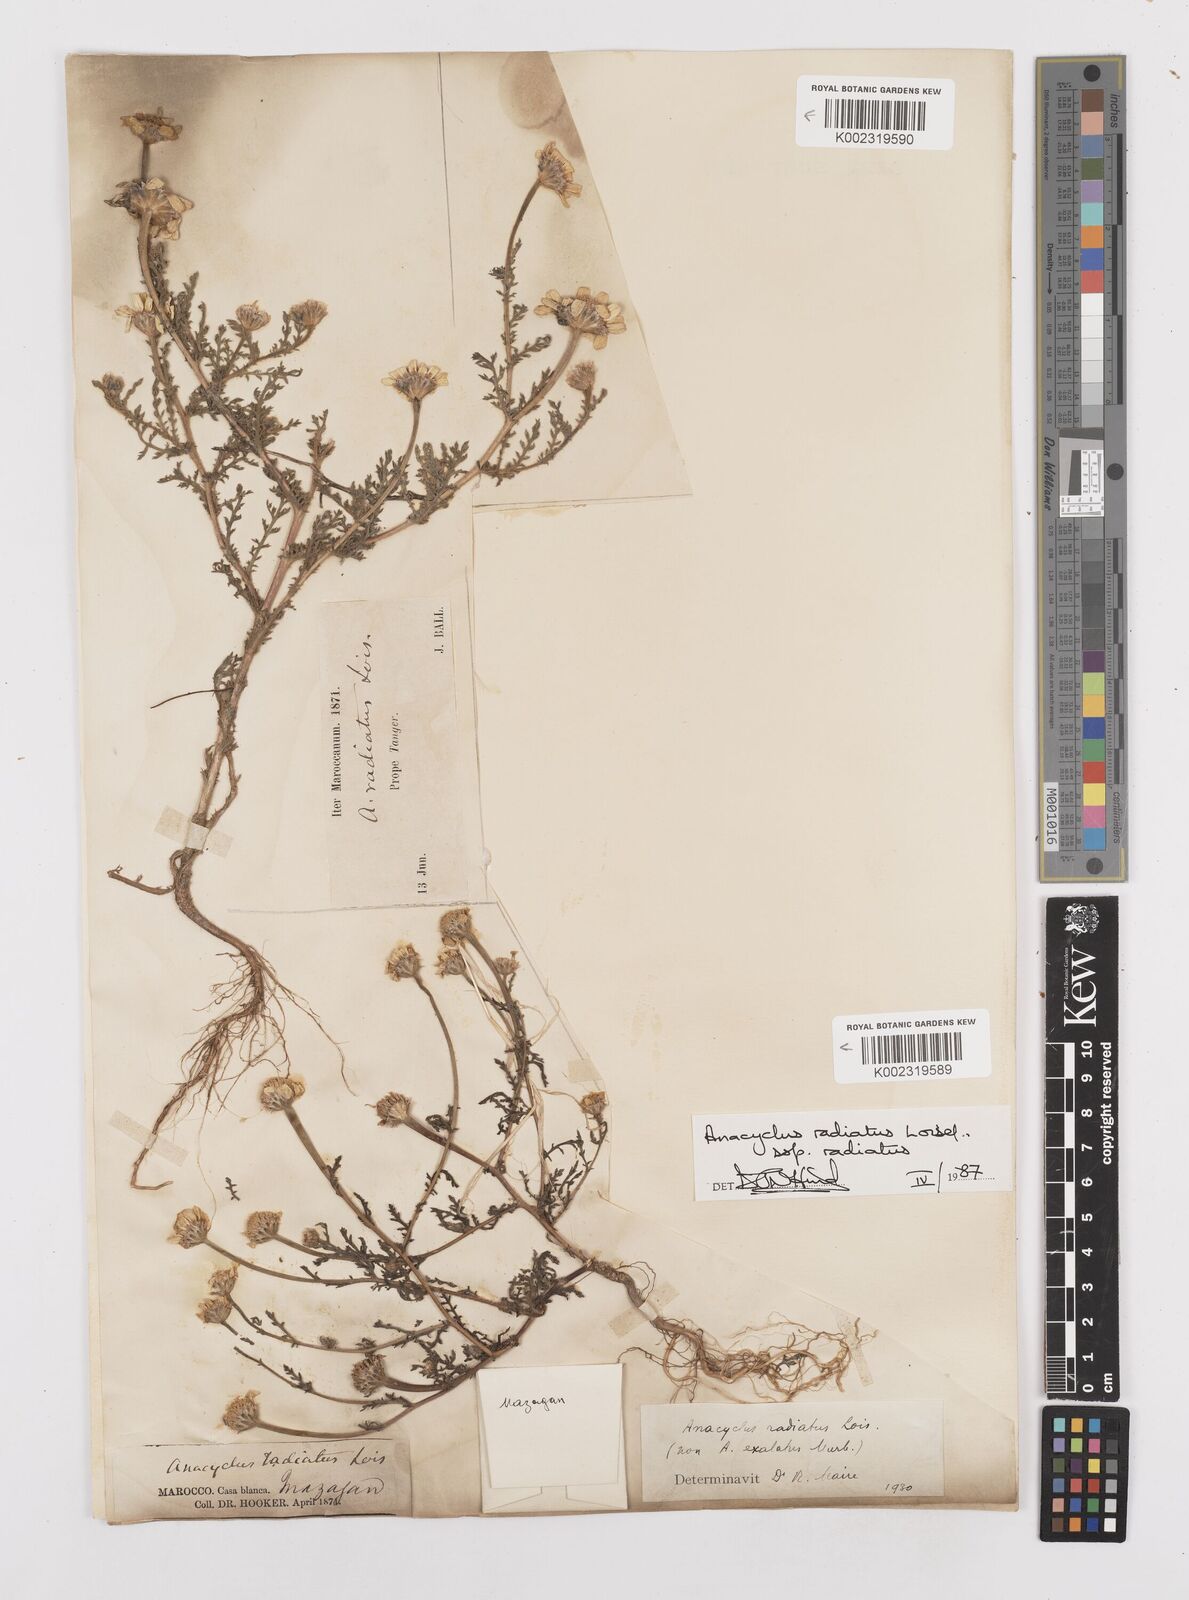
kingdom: Plantae
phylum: Tracheophyta
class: Magnoliopsida
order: Asterales
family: Asteraceae
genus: Anacyclus
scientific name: Anacyclus radiatus
